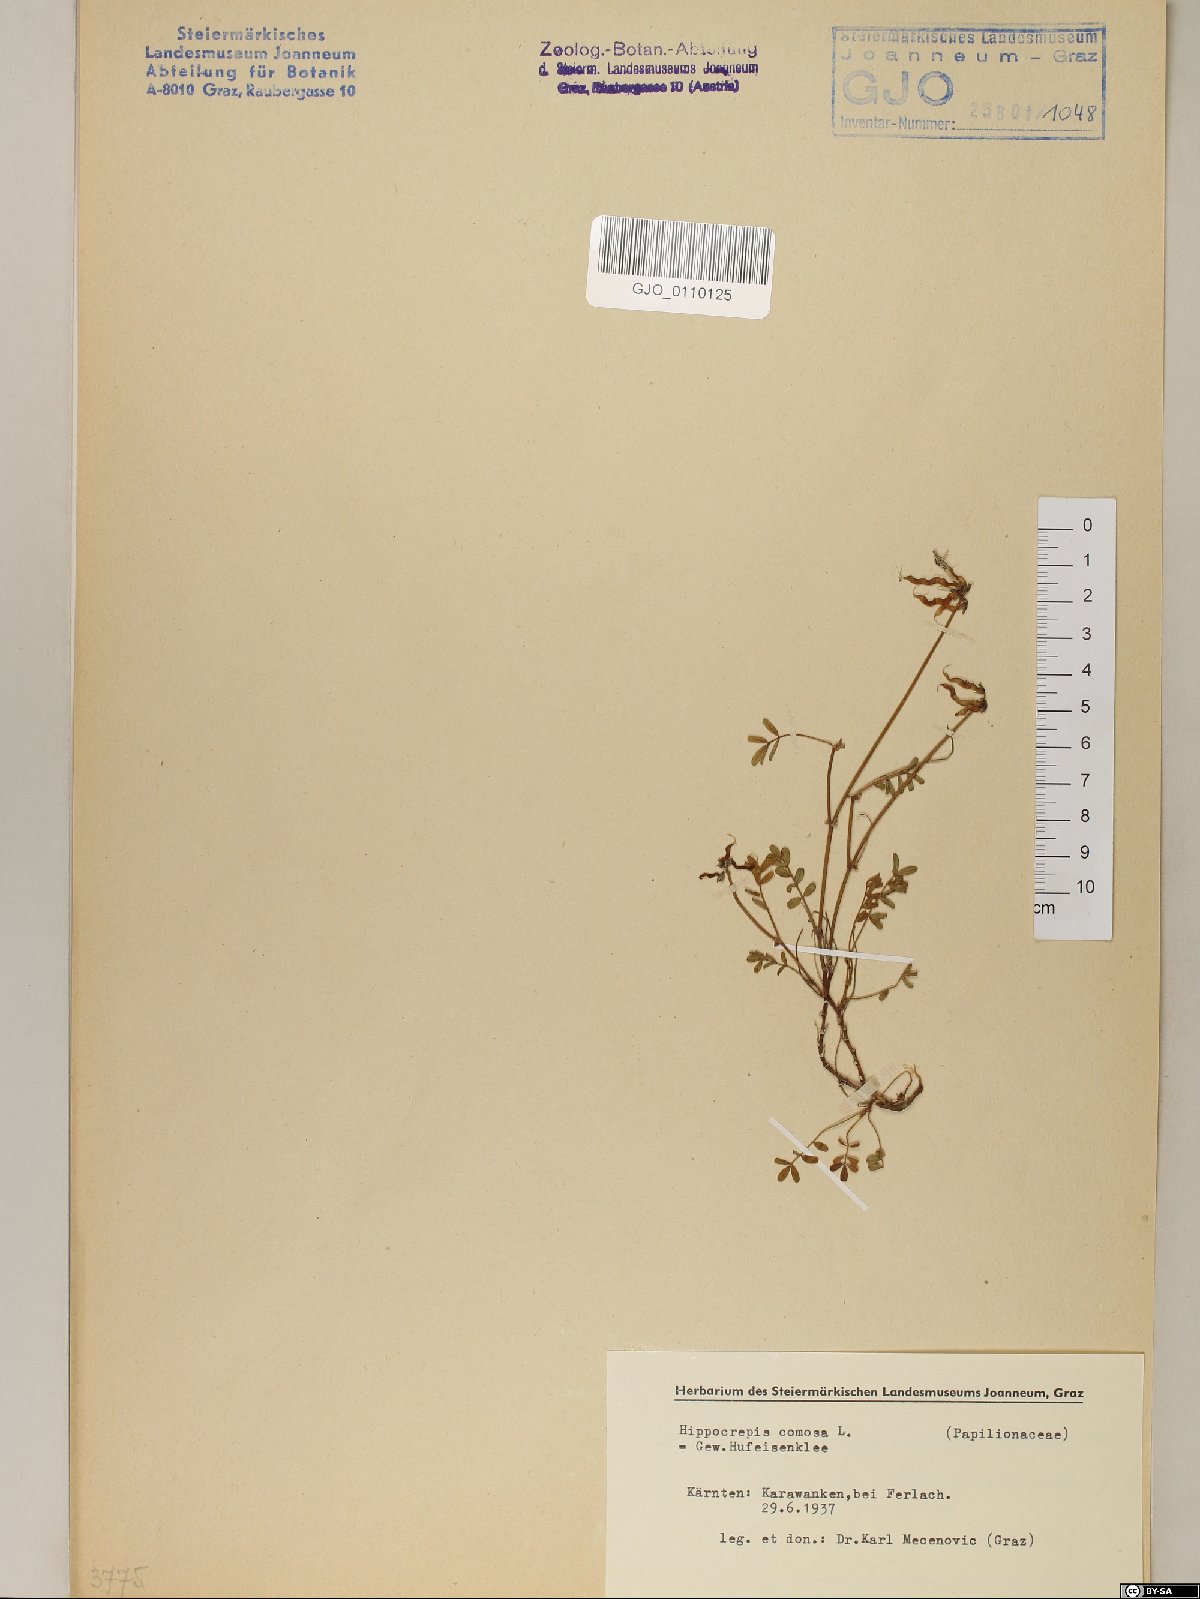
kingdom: Plantae
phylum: Tracheophyta
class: Magnoliopsida
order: Fabales
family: Fabaceae
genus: Hippocrepis
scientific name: Hippocrepis comosa
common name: Horseshoe vetch
